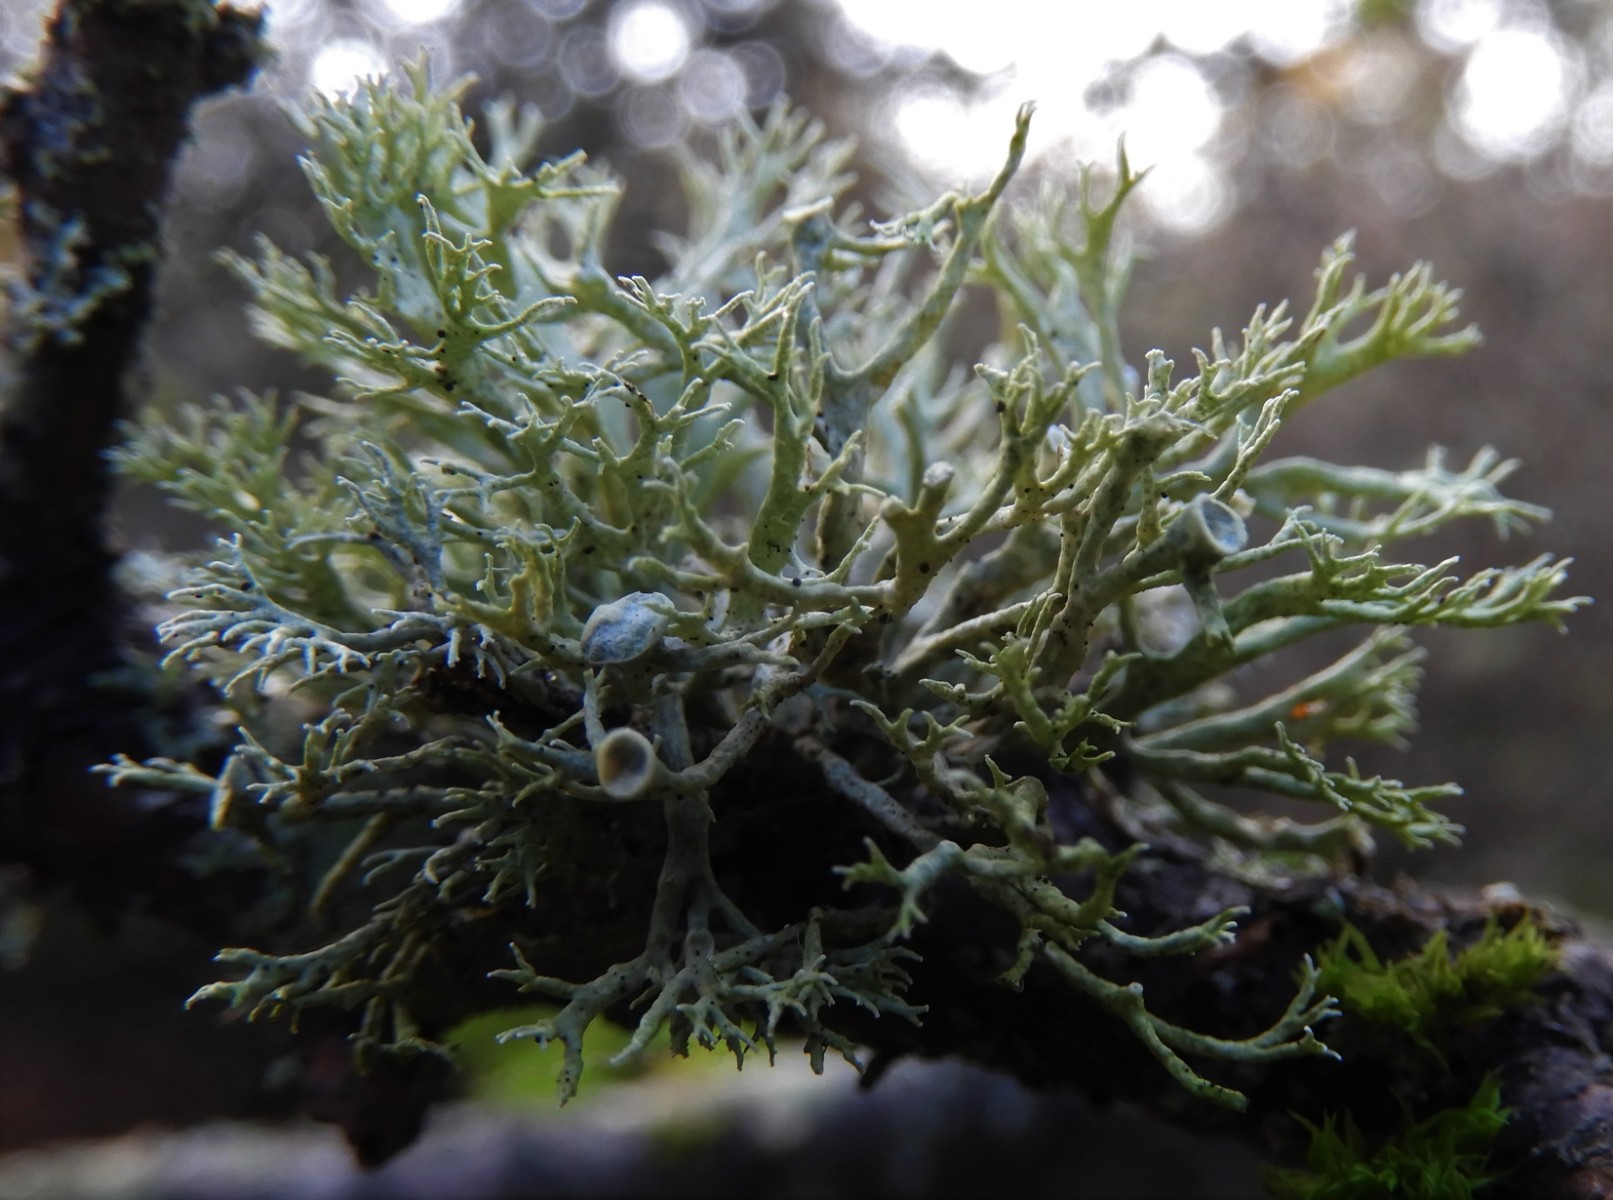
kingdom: Fungi
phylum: Ascomycota
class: Lecanoromycetes
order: Lecanorales
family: Ramalinaceae
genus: Ramalina
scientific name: Ramalina
